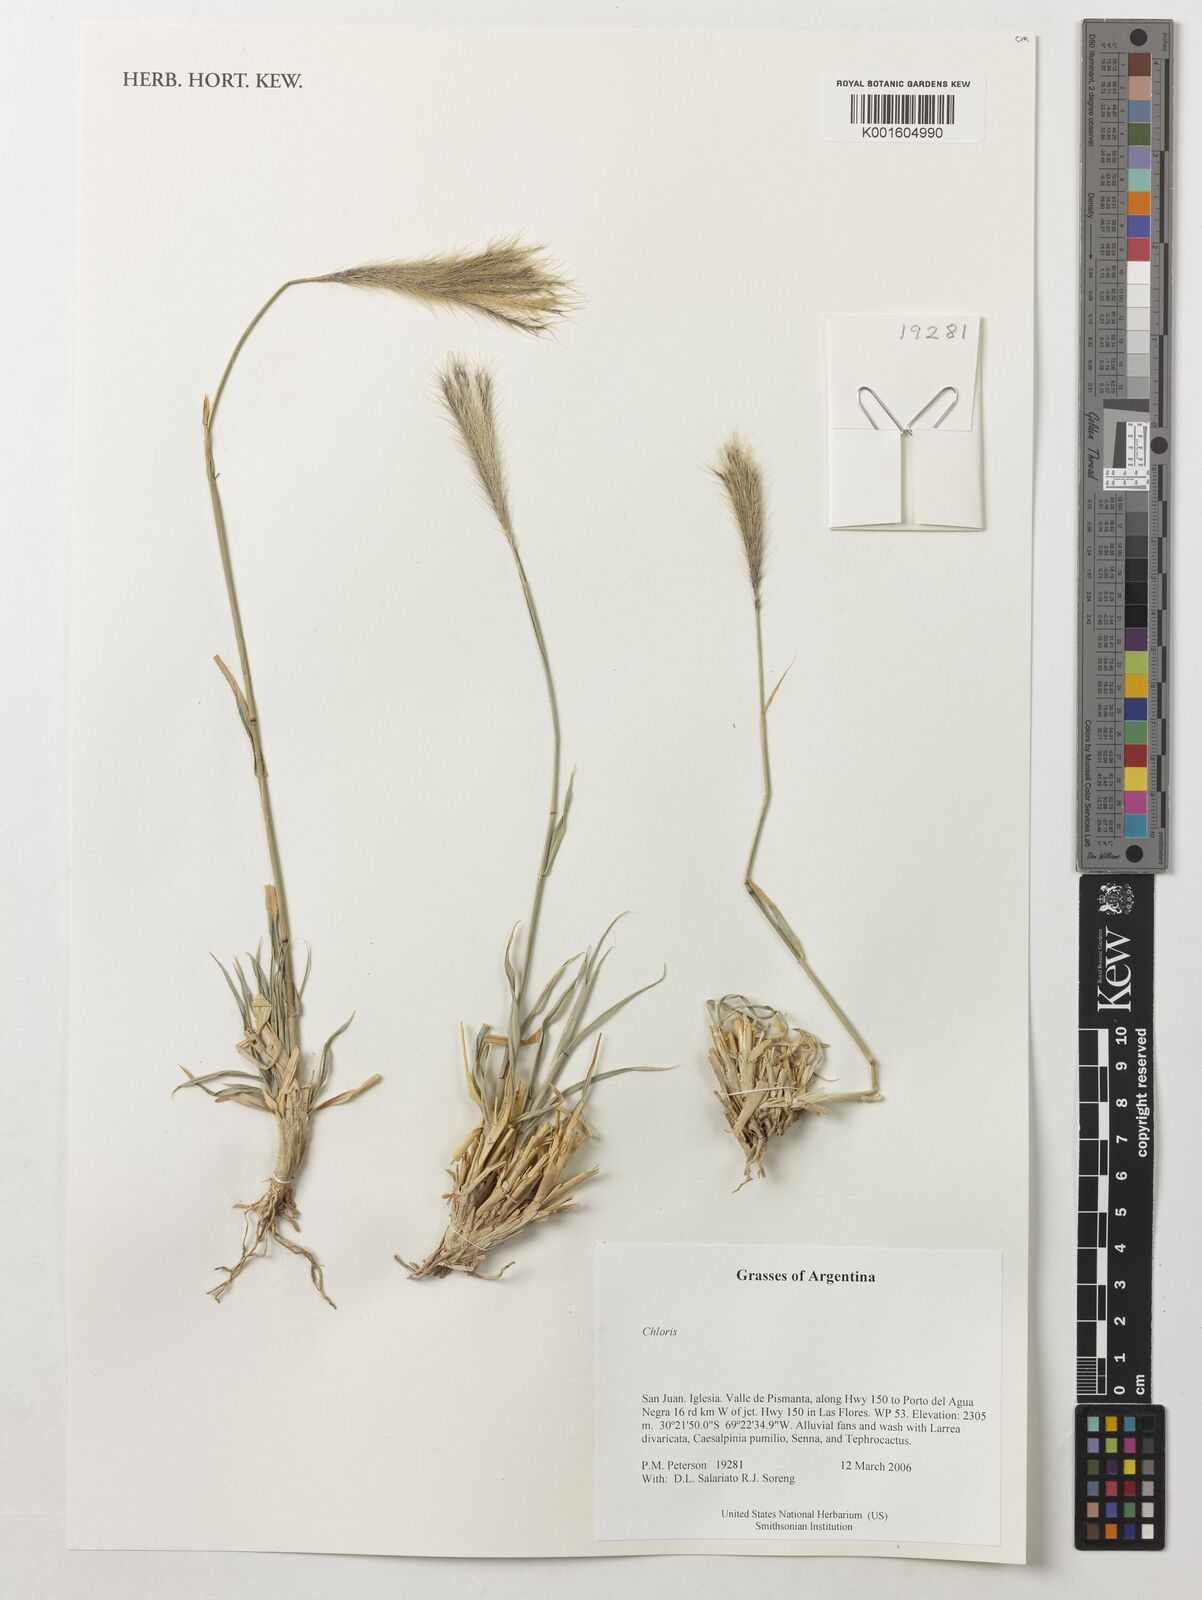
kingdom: Plantae
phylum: Tracheophyta
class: Liliopsida
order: Poales
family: Poaceae
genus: Chloris
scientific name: Chloris
